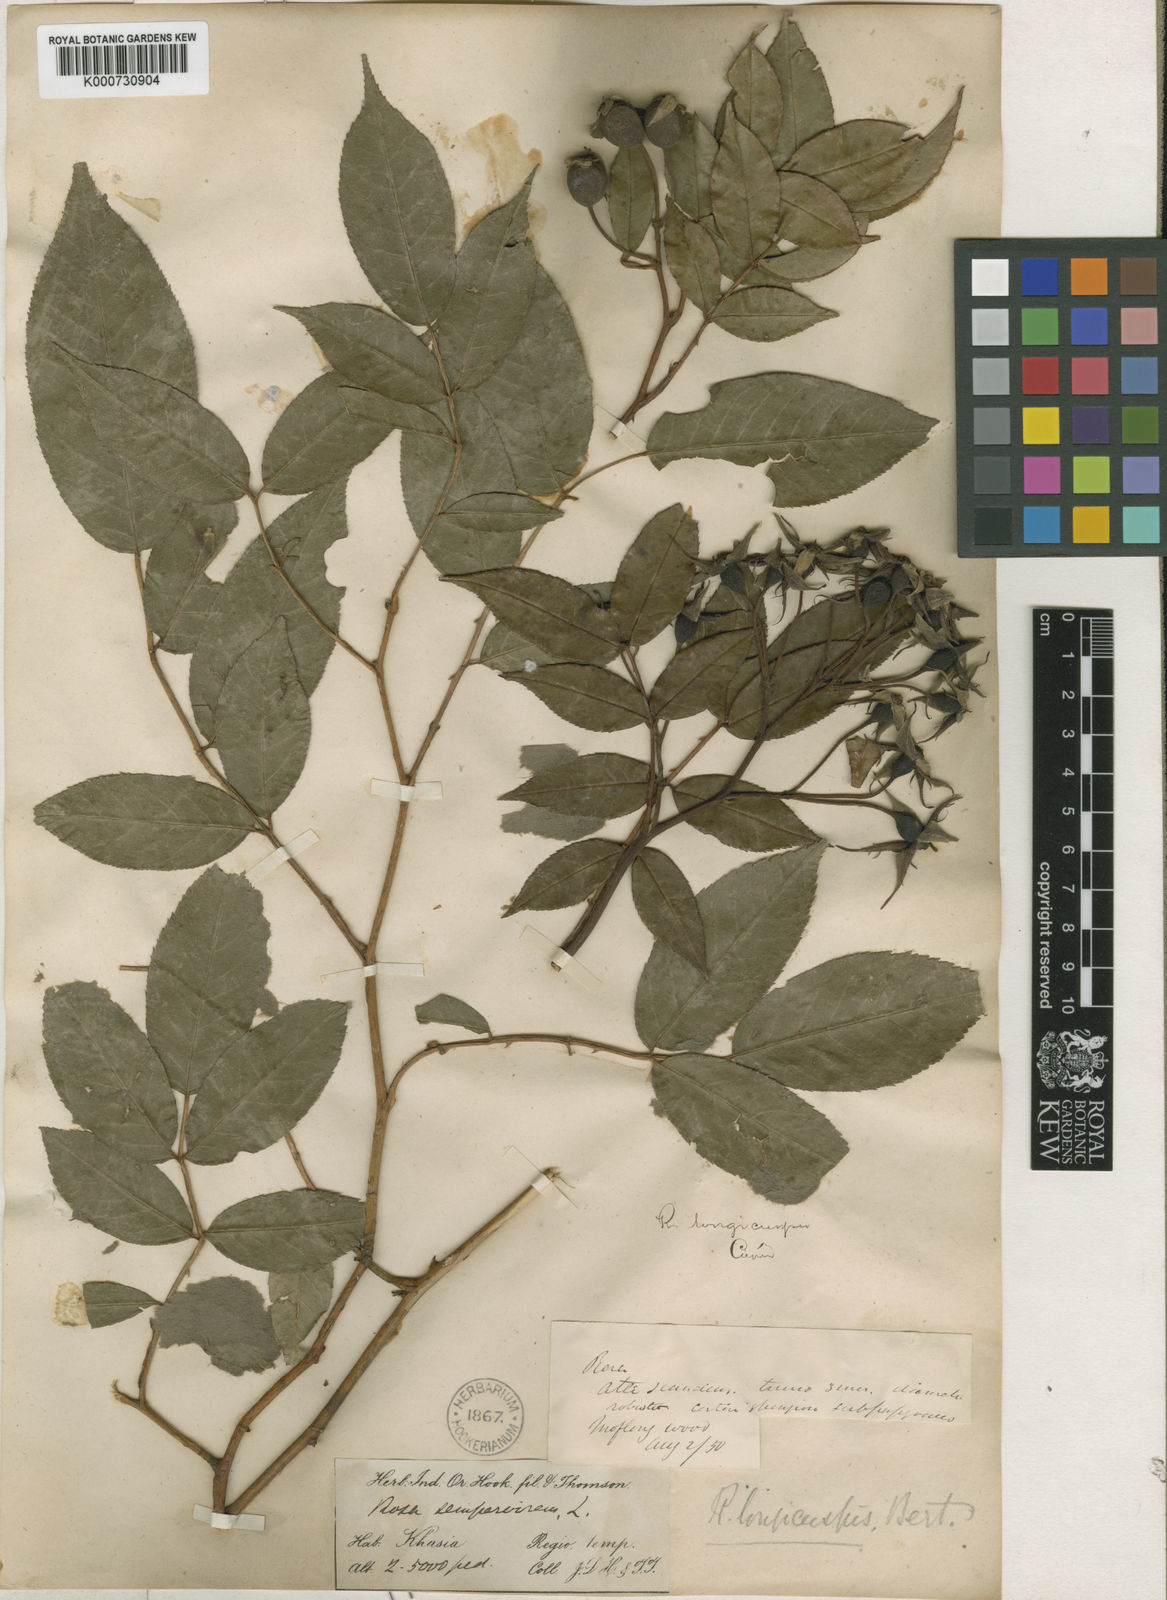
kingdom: Plantae
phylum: Tracheophyta
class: Magnoliopsida
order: Rosales
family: Rosaceae
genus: Rosa
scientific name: Rosa longicuspis
